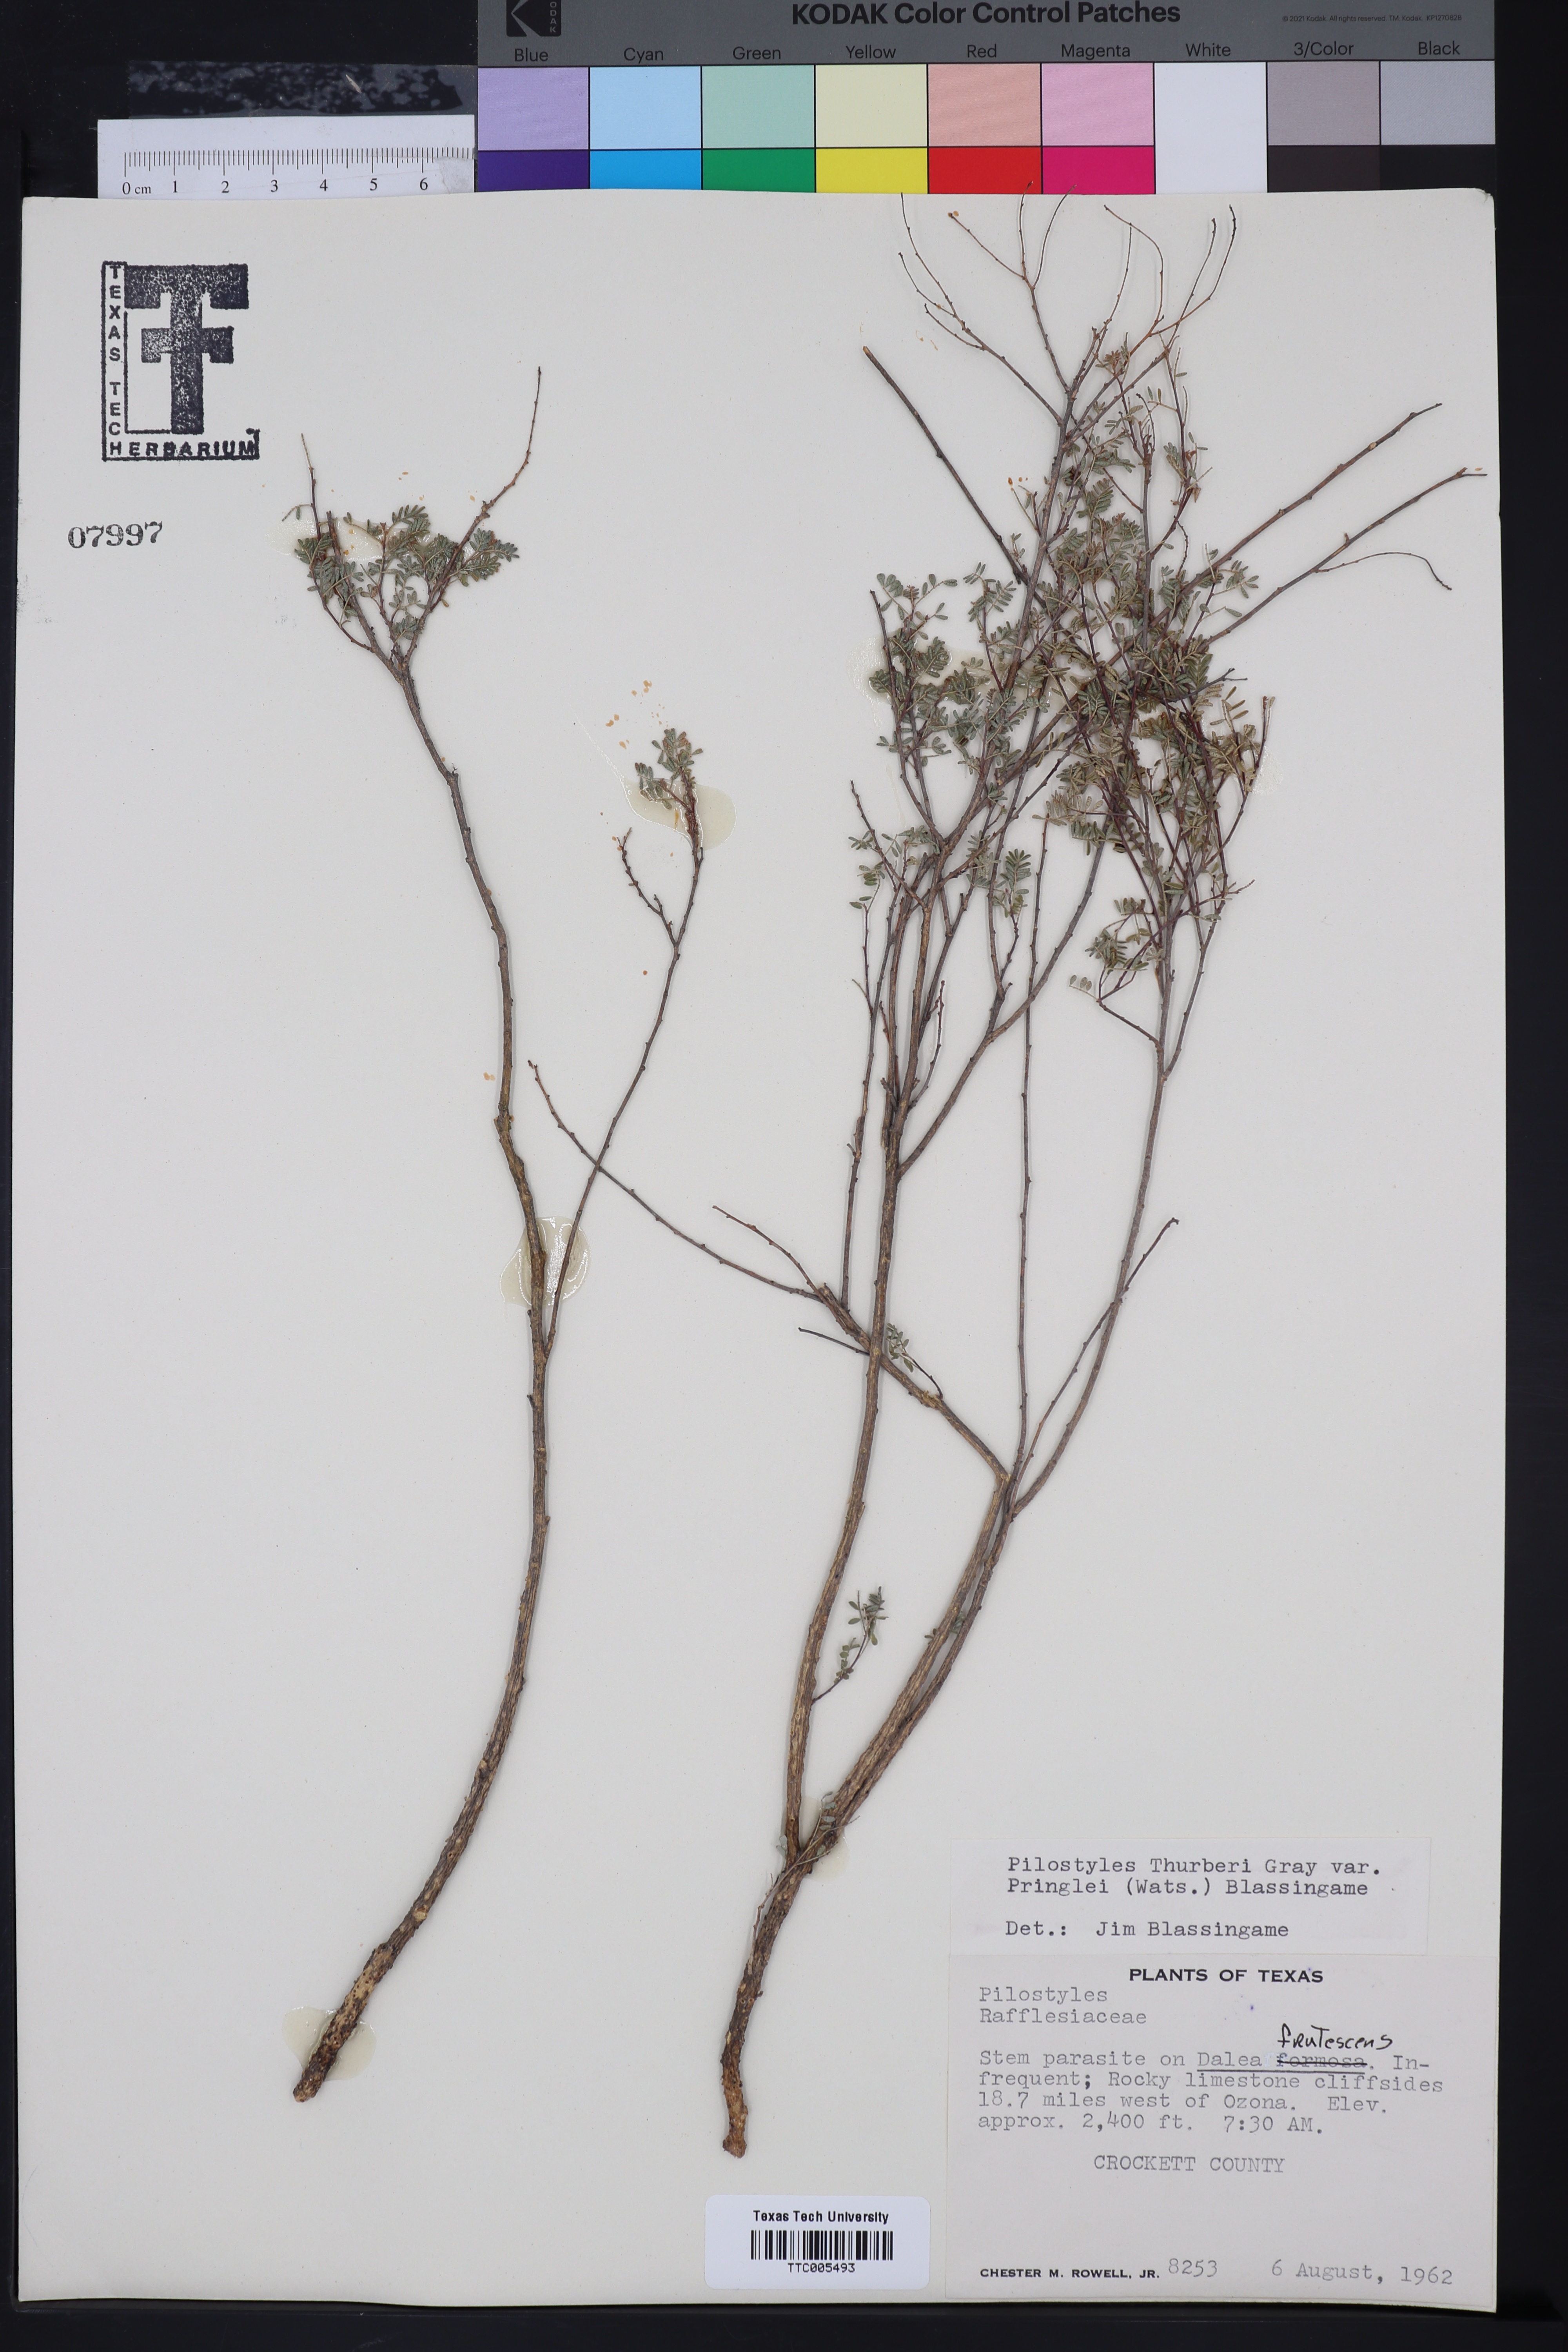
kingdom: Plantae
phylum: Tracheophyta
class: Magnoliopsida
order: Cucurbitales
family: Apodanthaceae
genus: Pilostyles
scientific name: Pilostyles
